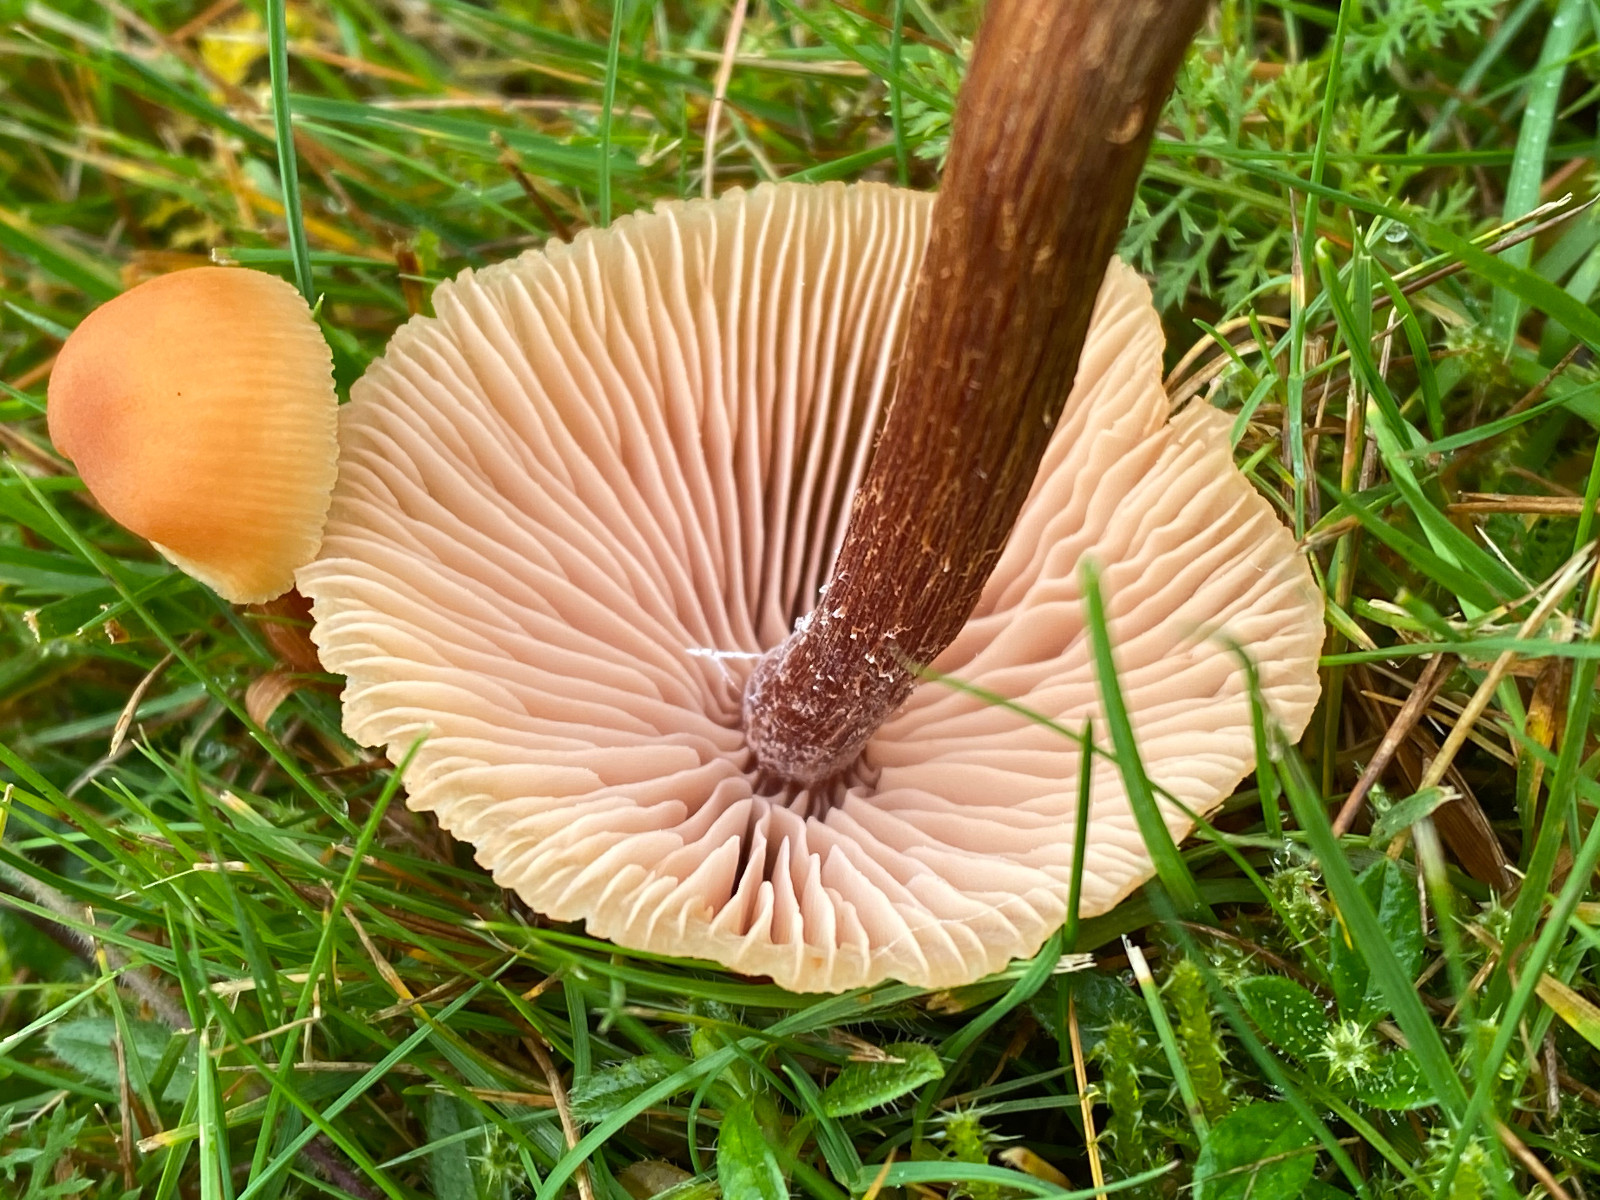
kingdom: Fungi
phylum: Basidiomycota
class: Agaricomycetes
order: Agaricales
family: Hydnangiaceae
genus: Laccaria
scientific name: Laccaria proxima
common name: stor ametysthat
